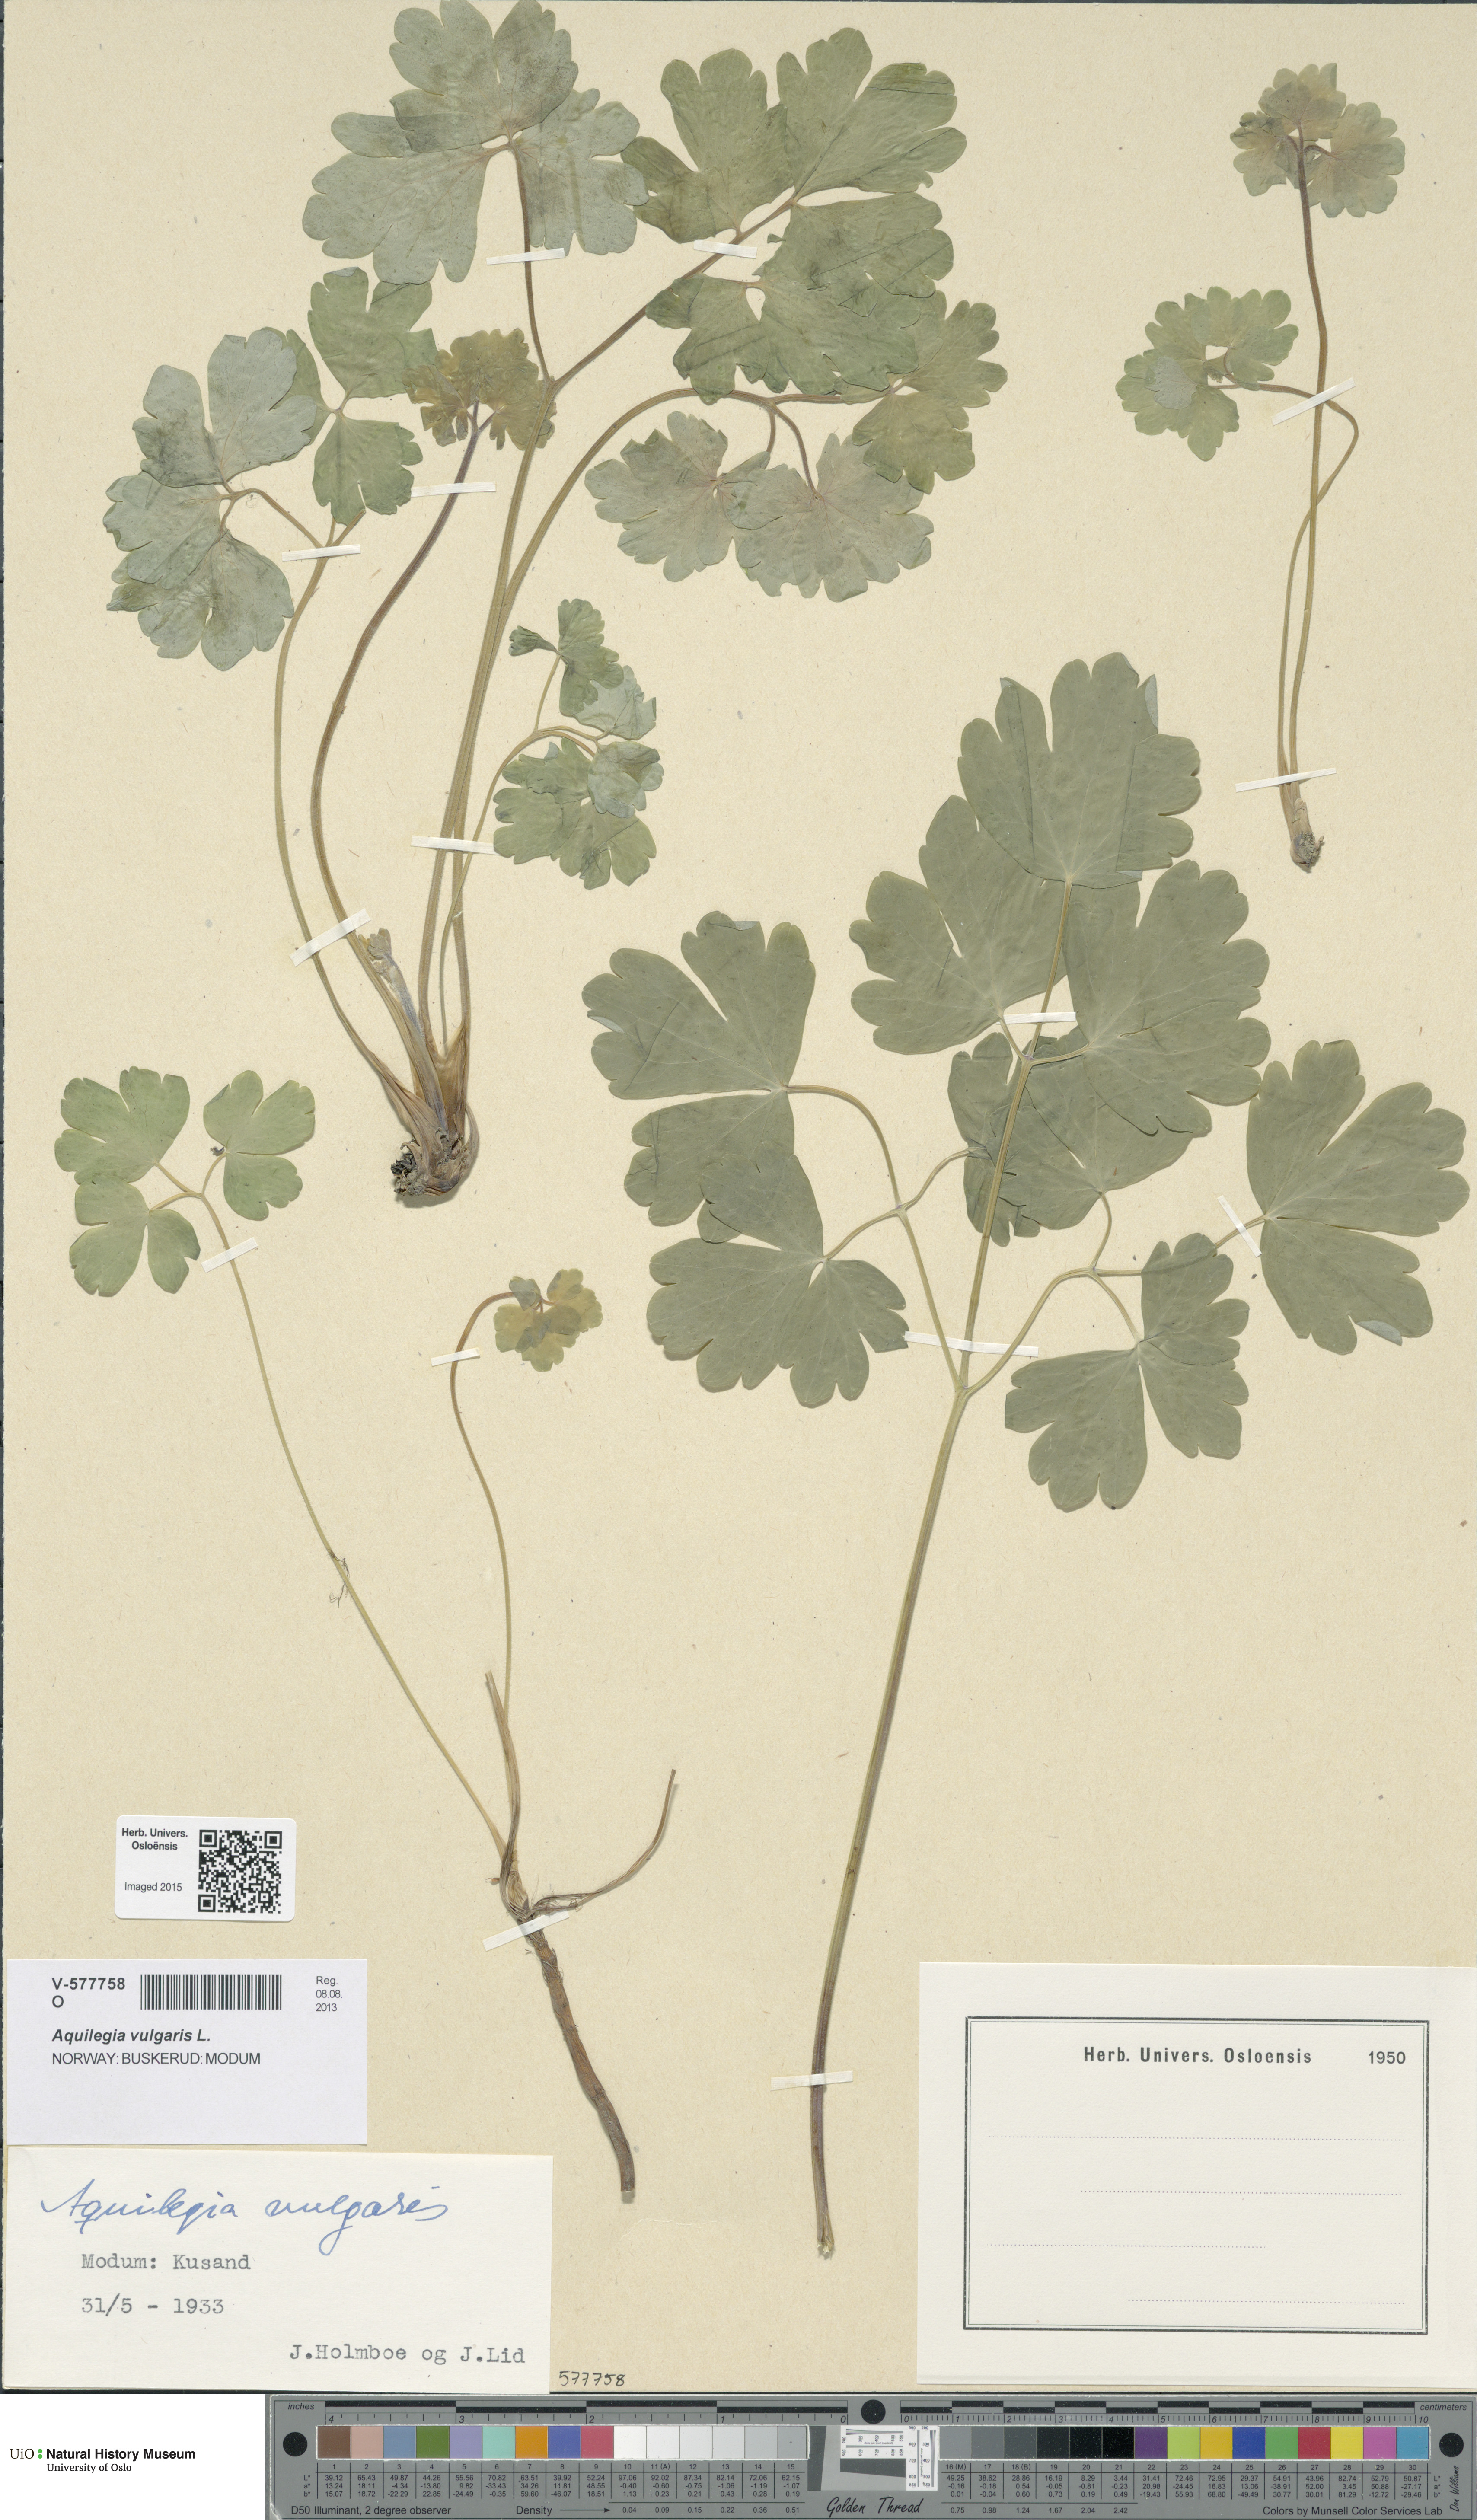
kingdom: Plantae
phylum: Tracheophyta
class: Magnoliopsida
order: Ranunculales
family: Ranunculaceae
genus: Aquilegia
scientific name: Aquilegia vulgaris
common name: Columbine
